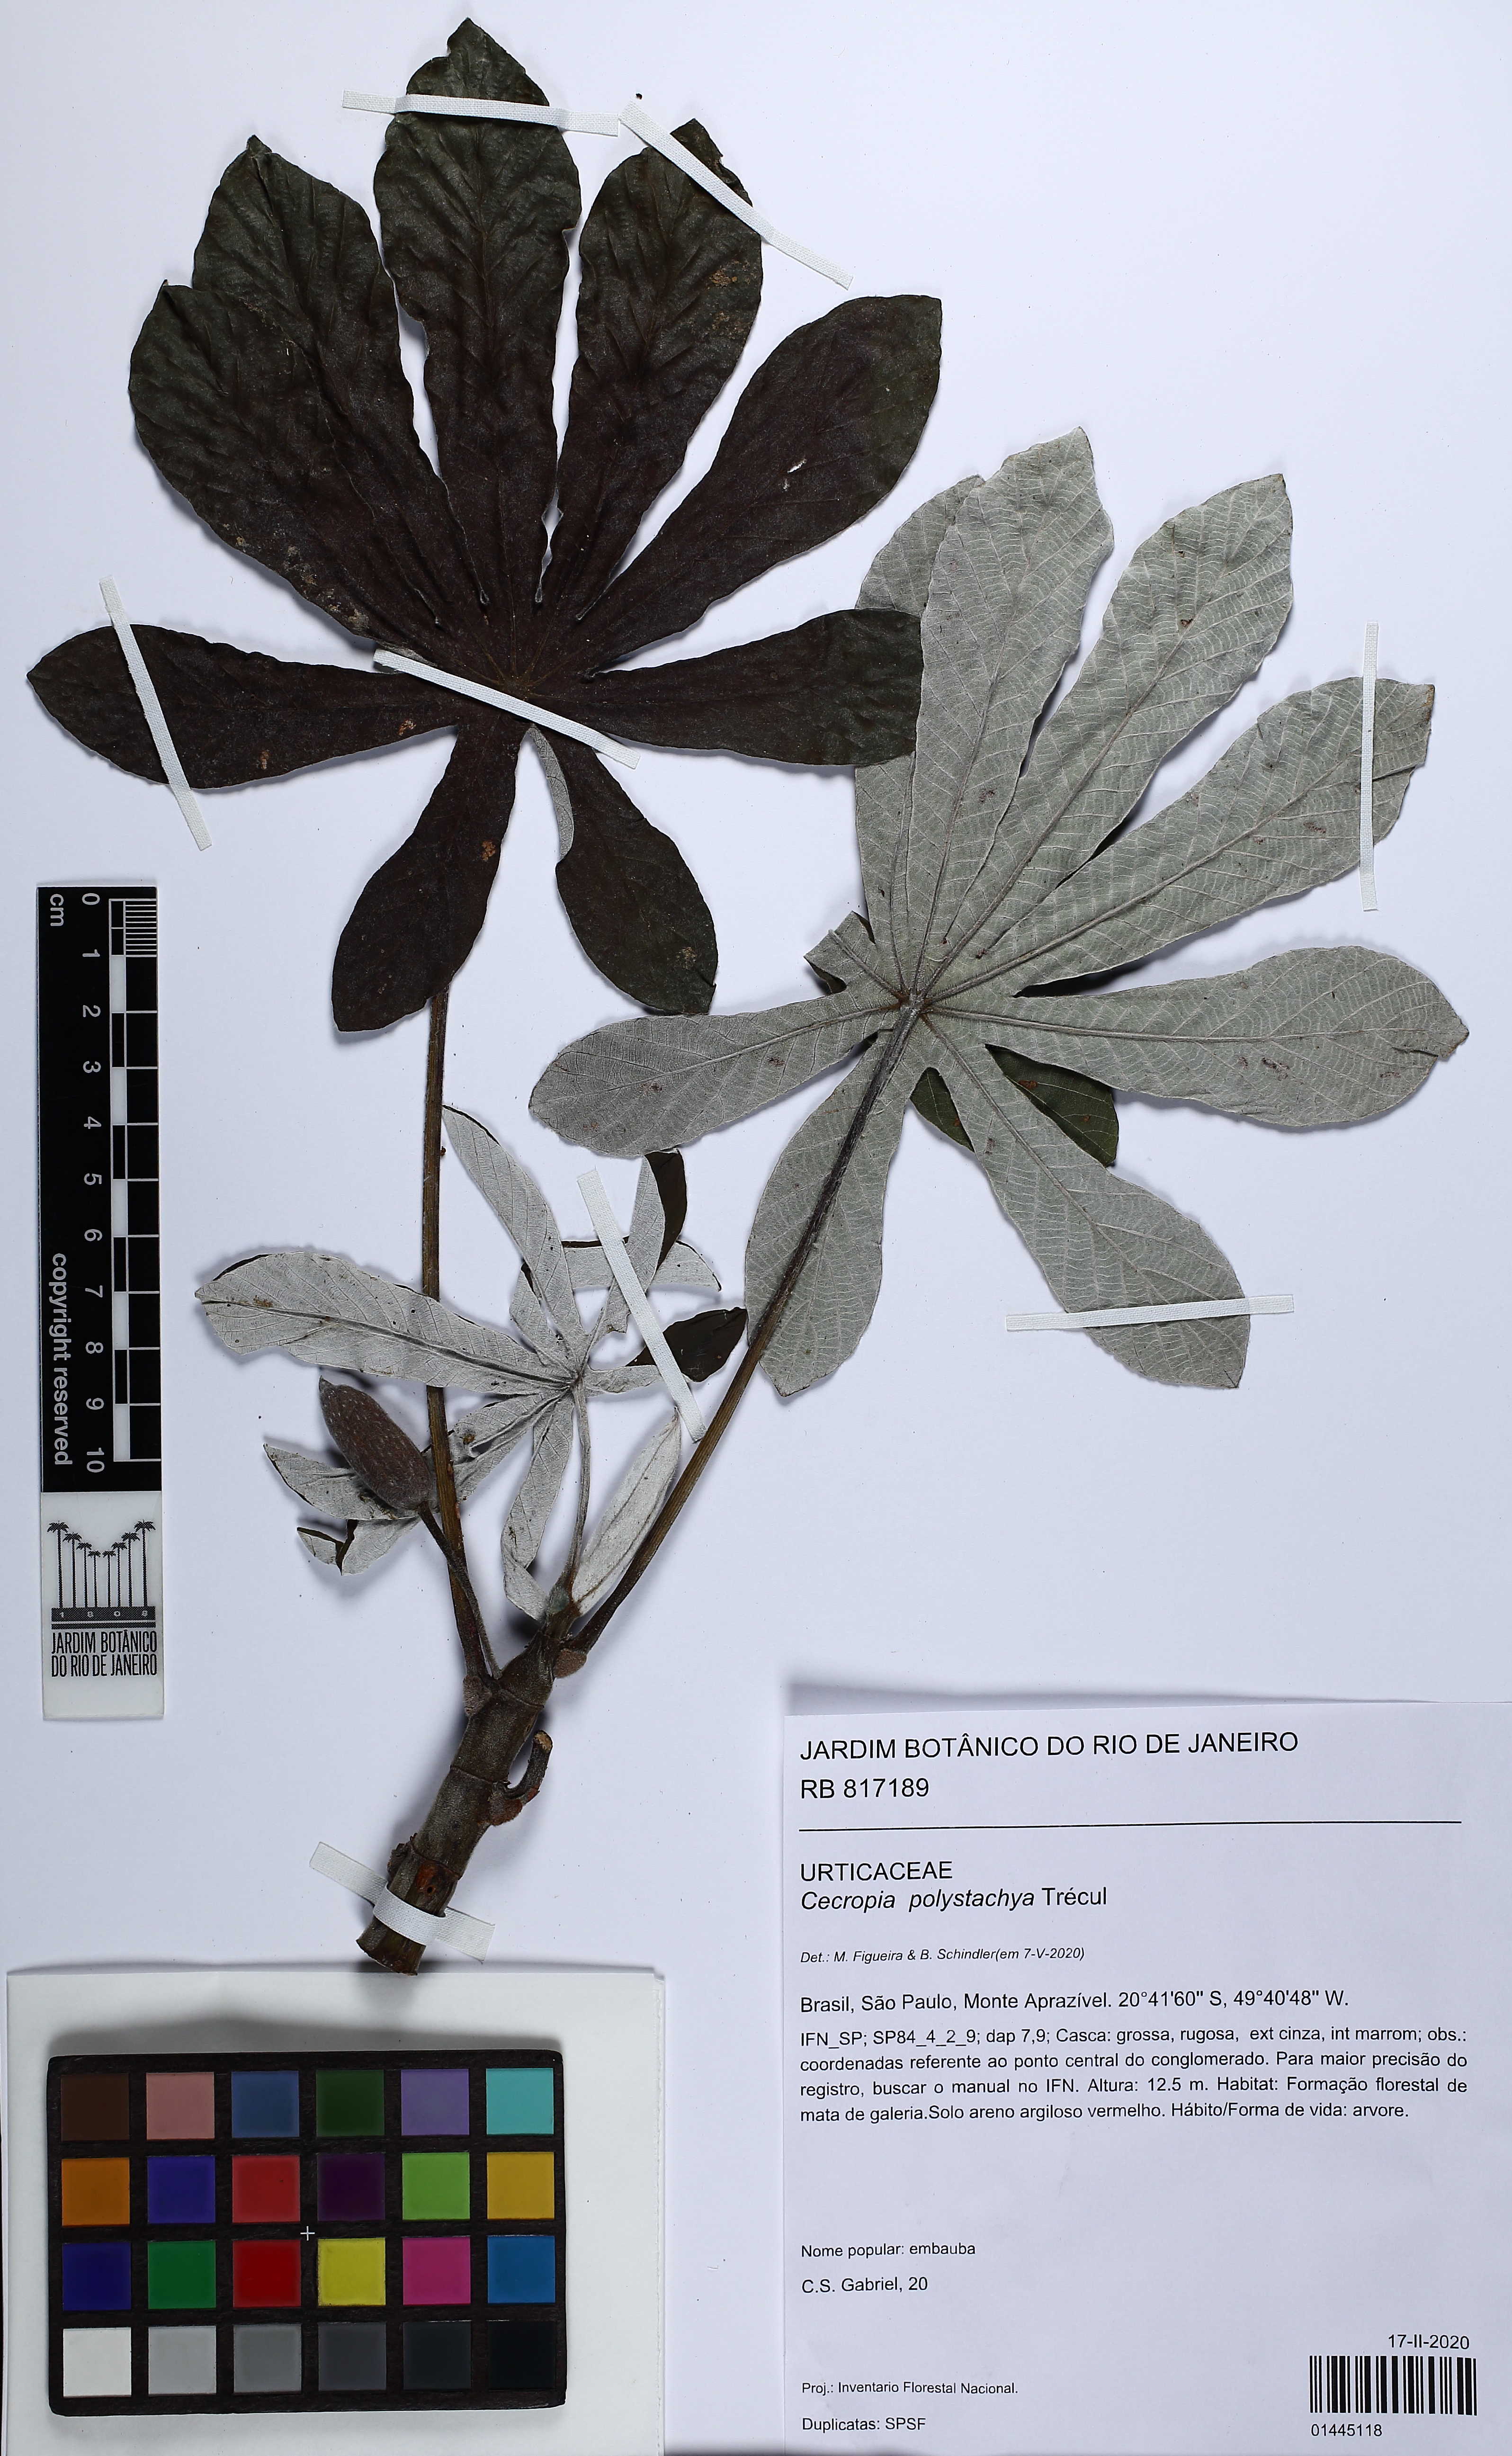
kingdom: Plantae
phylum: Tracheophyta
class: Magnoliopsida
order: Rosales
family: Urticaceae
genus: Cecropia
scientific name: Cecropia polystachya
